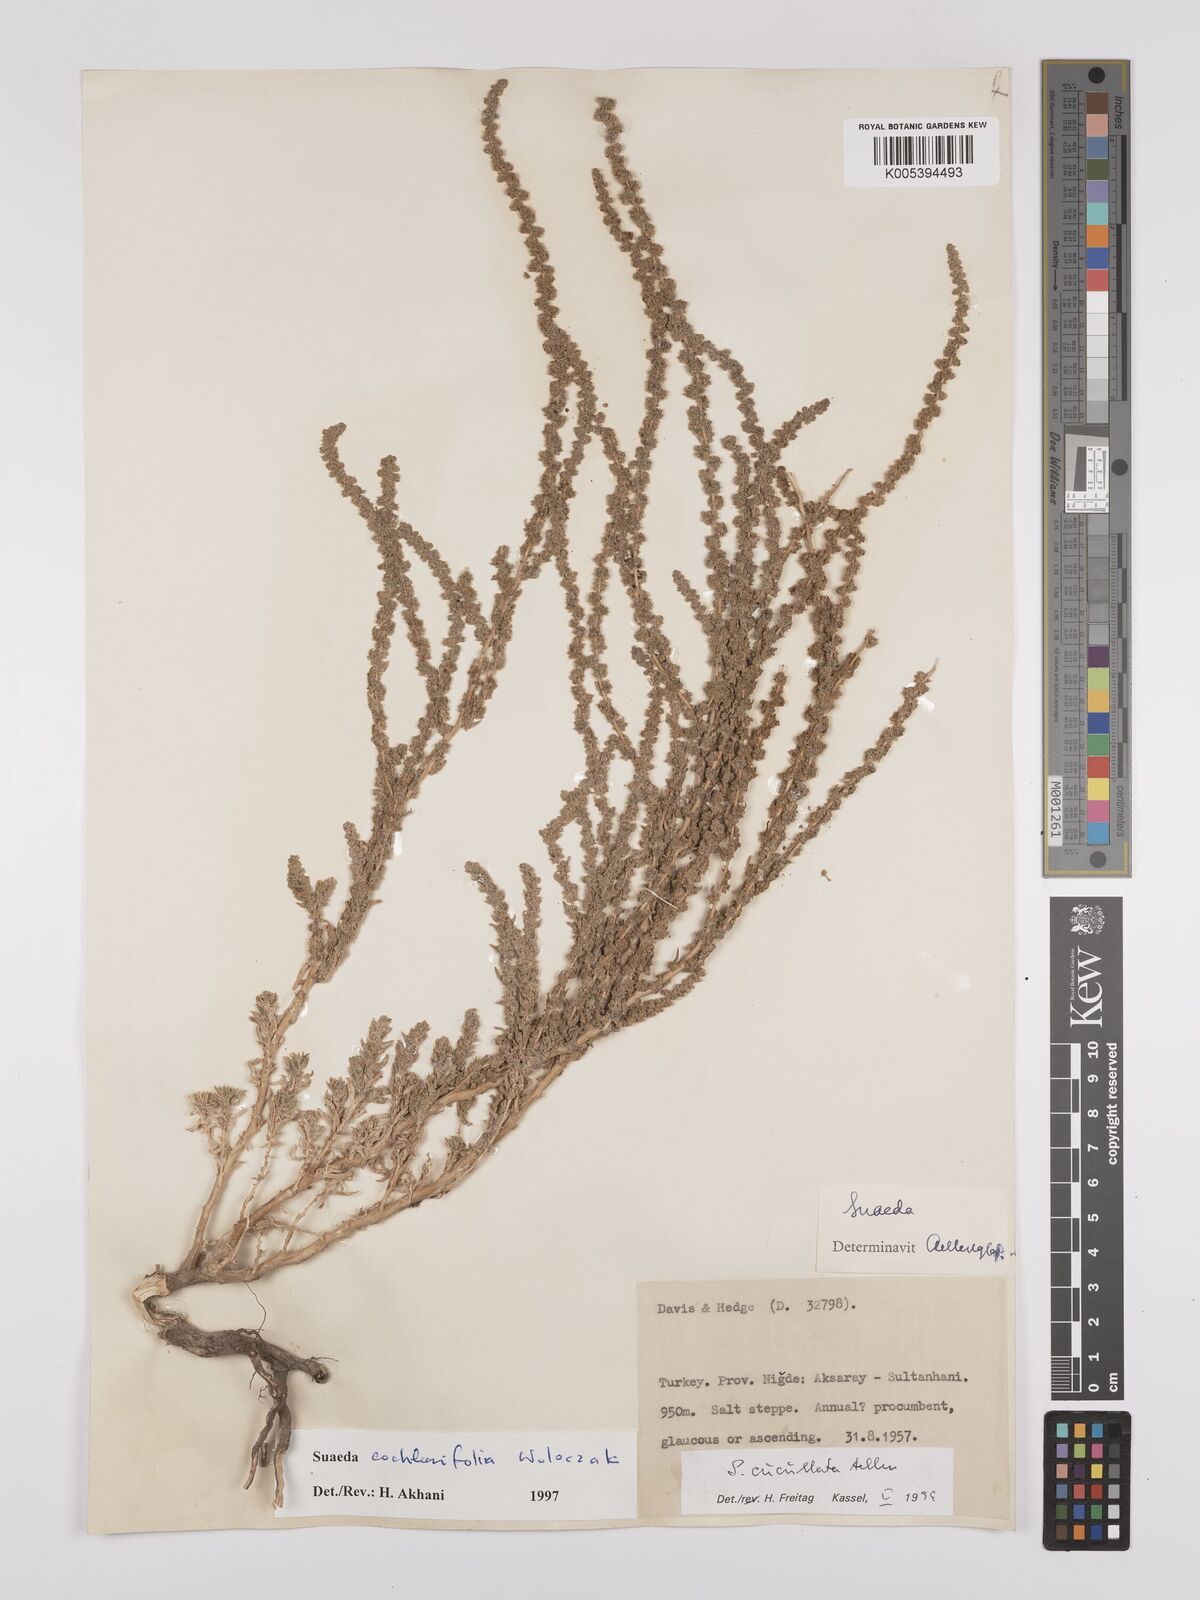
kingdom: Plantae
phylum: Tracheophyta
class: Magnoliopsida
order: Caryophyllales
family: Amaranthaceae
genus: Suaeda
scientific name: Suaeda cucullata
